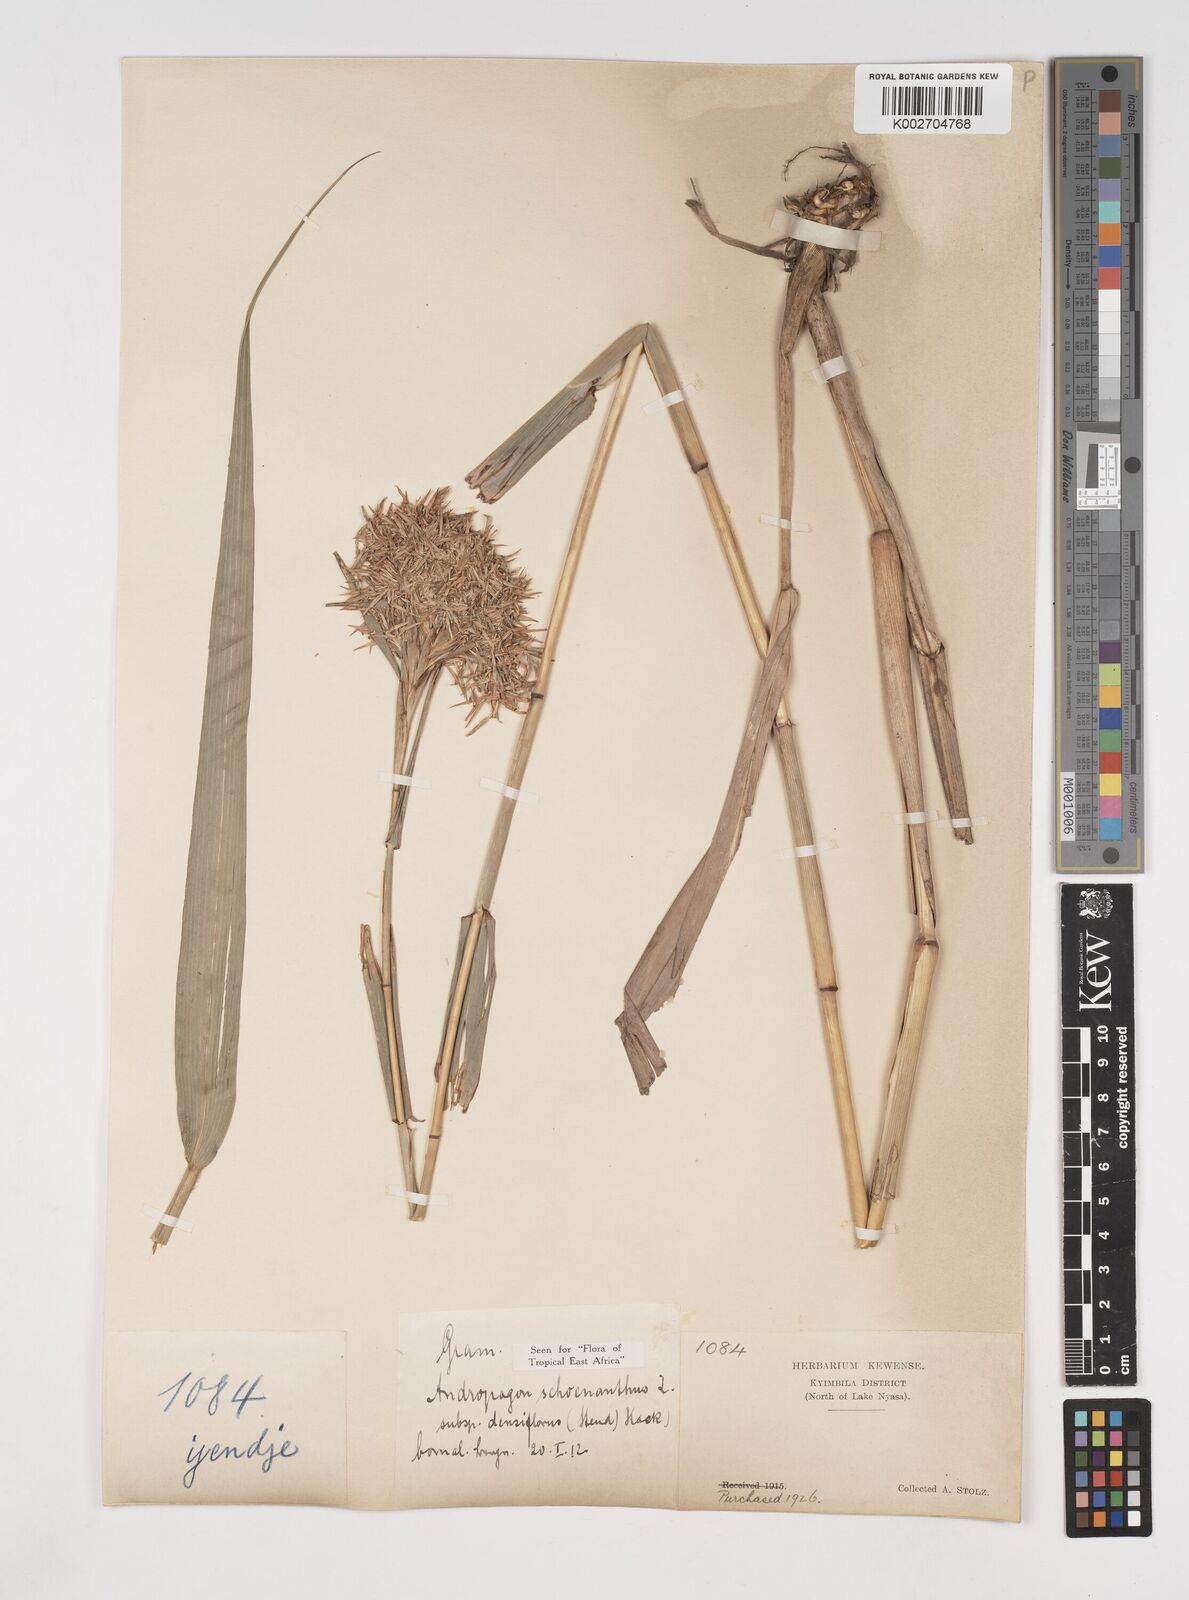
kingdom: Plantae
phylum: Tracheophyta
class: Liliopsida
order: Poales
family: Poaceae
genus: Cymbopogon
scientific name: Cymbopogon densiflorus
